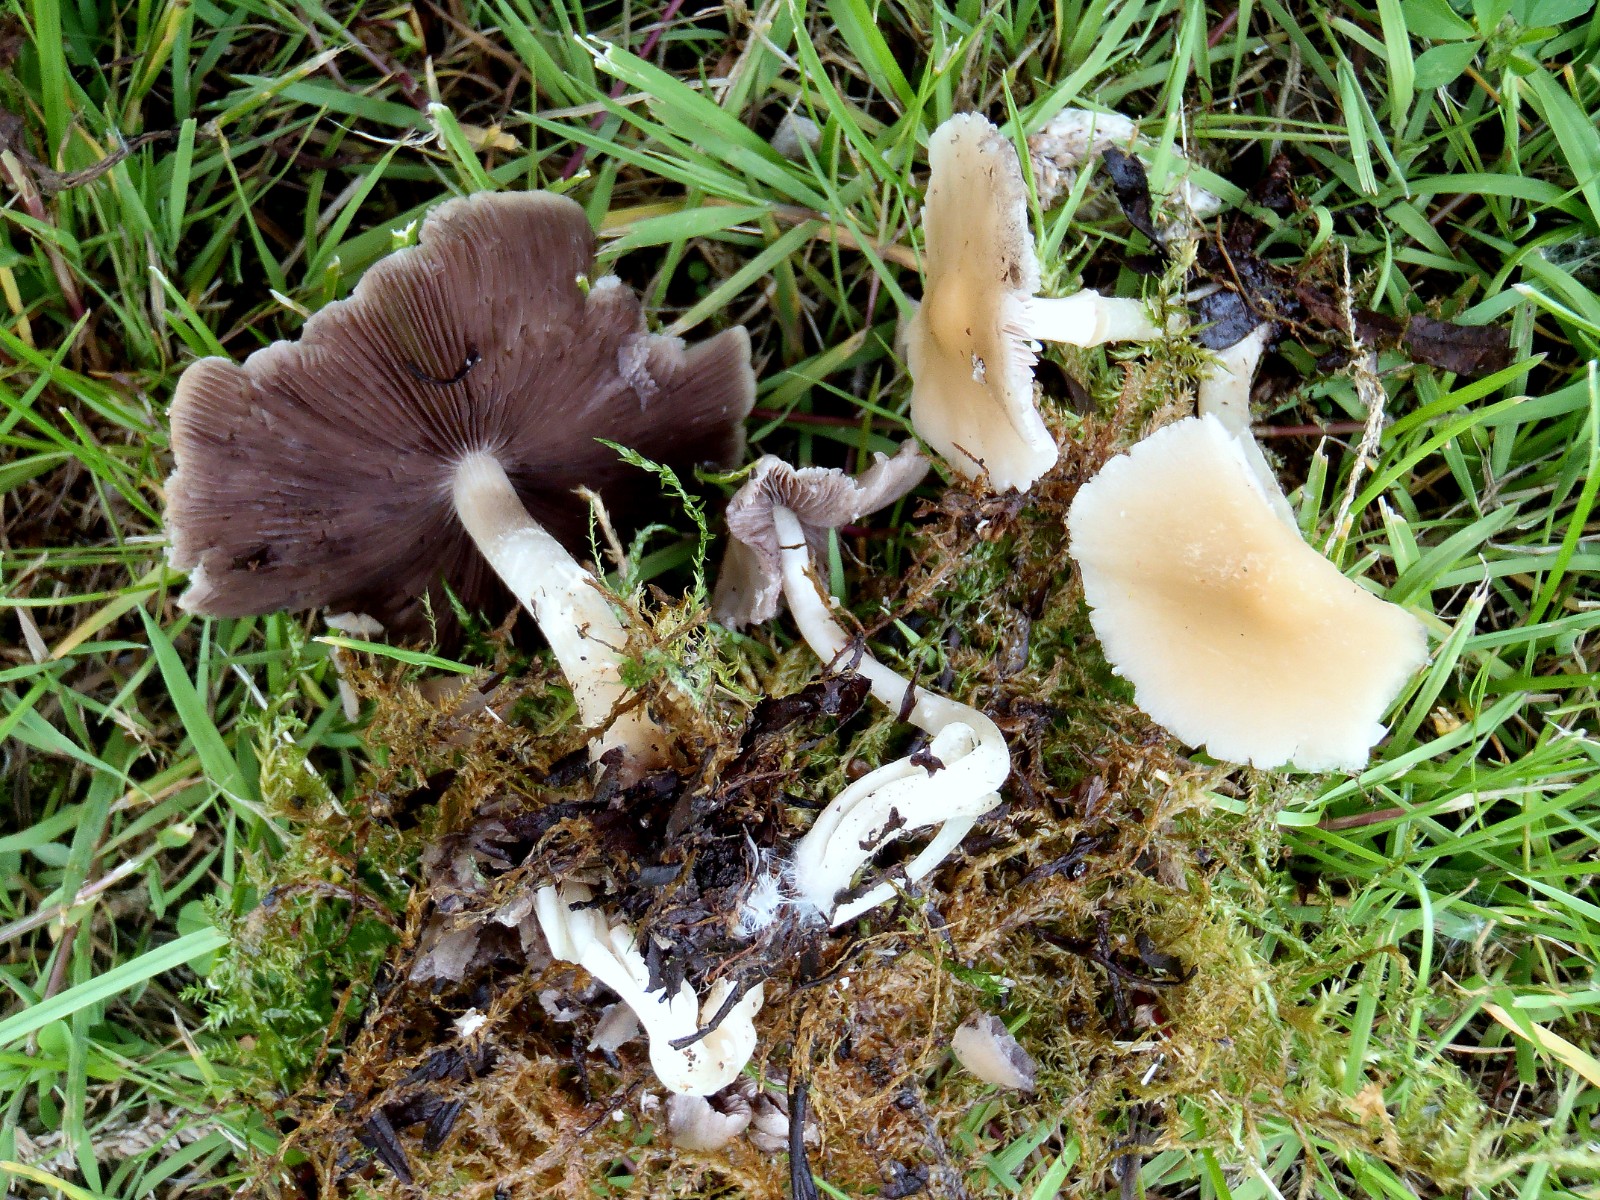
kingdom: Fungi
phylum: Basidiomycota
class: Agaricomycetes
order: Agaricales
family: Psathyrellaceae
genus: Psathyrella
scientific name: Psathyrella spadiceogrisea
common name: gråbrun mørkhat
